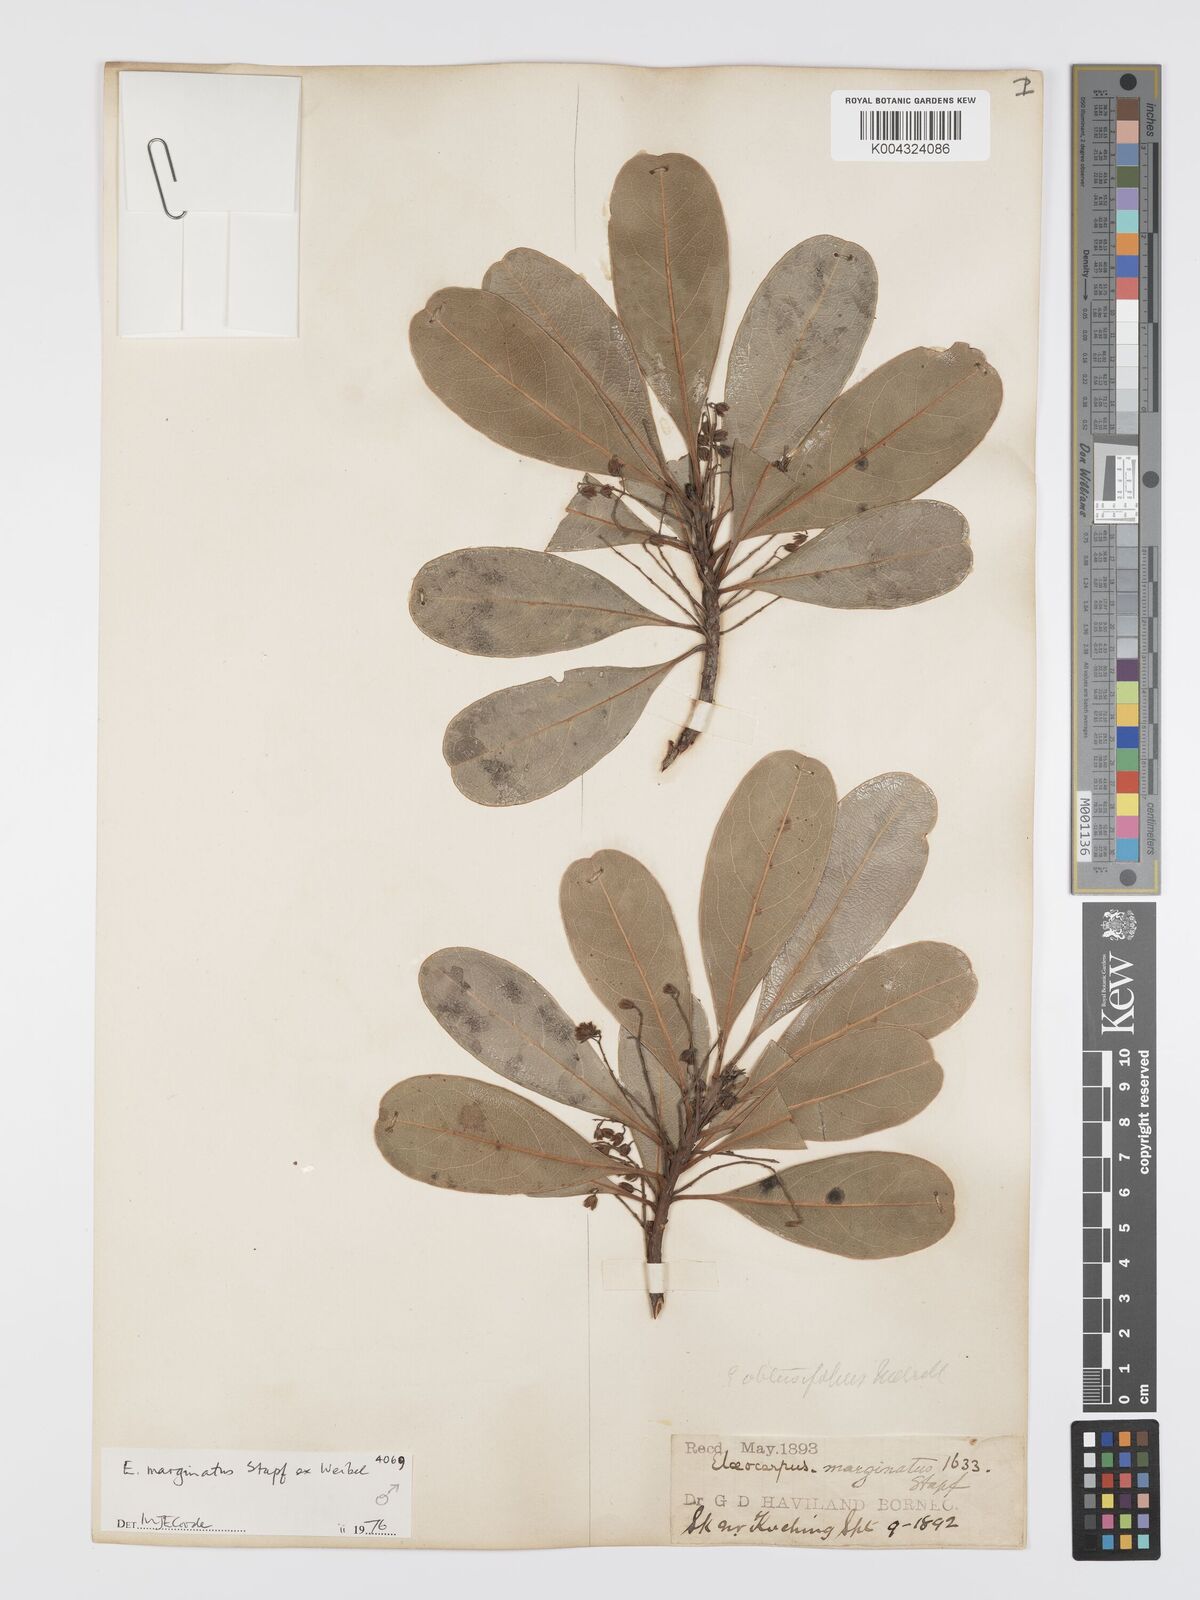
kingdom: Plantae
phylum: Tracheophyta
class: Magnoliopsida
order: Oxalidales
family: Elaeocarpaceae
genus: Elaeocarpus
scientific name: Elaeocarpus marginatus
